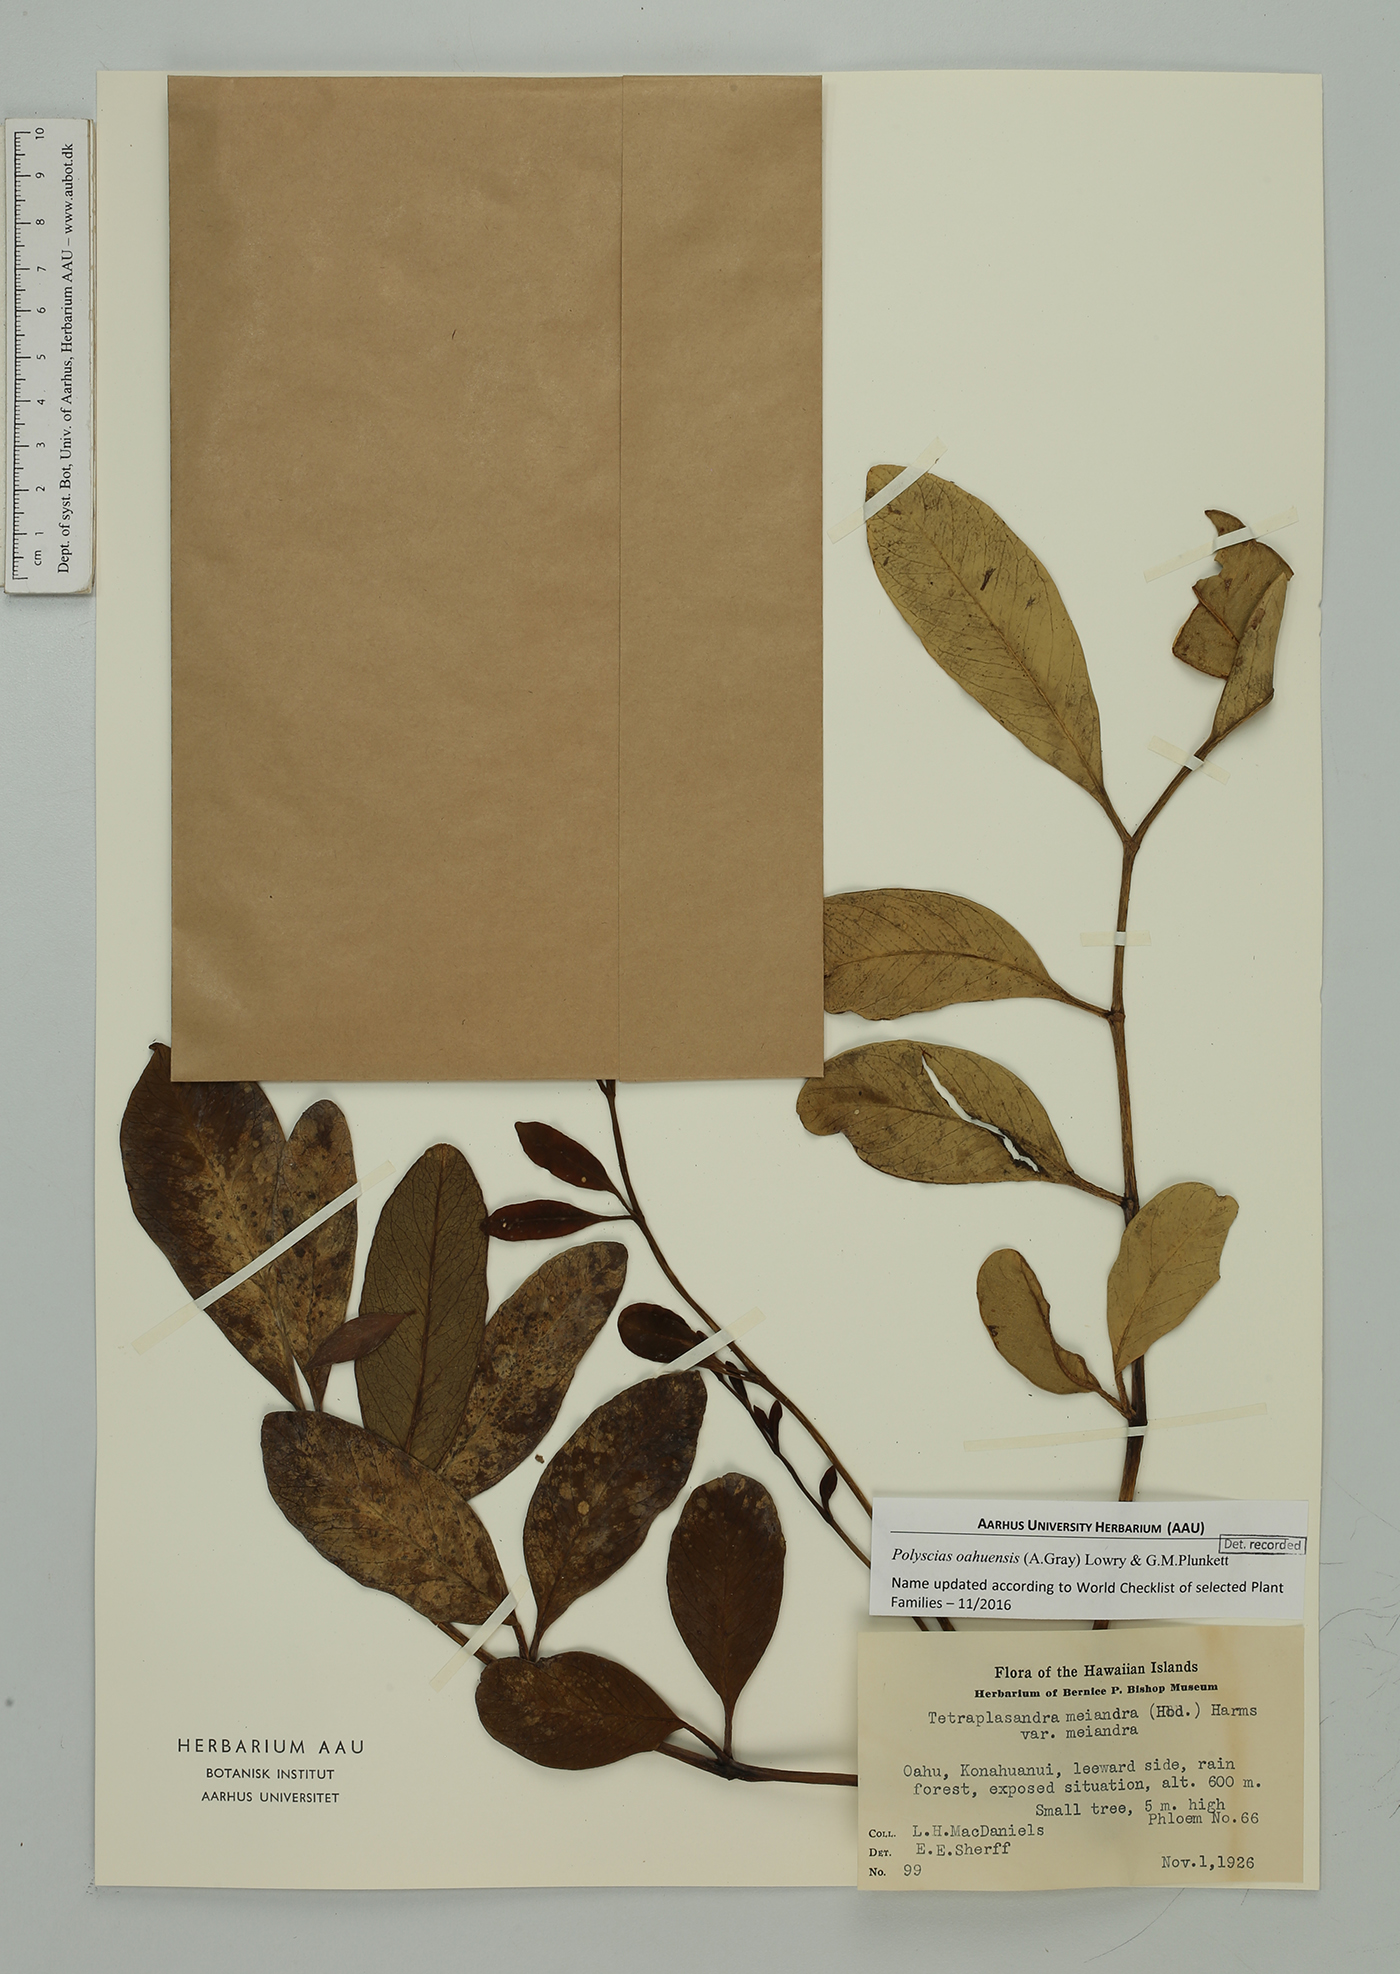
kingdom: Plantae
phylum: Tracheophyta
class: Magnoliopsida
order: Apiales
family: Araliaceae
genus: Polyscias
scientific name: Polyscias oahuensis
